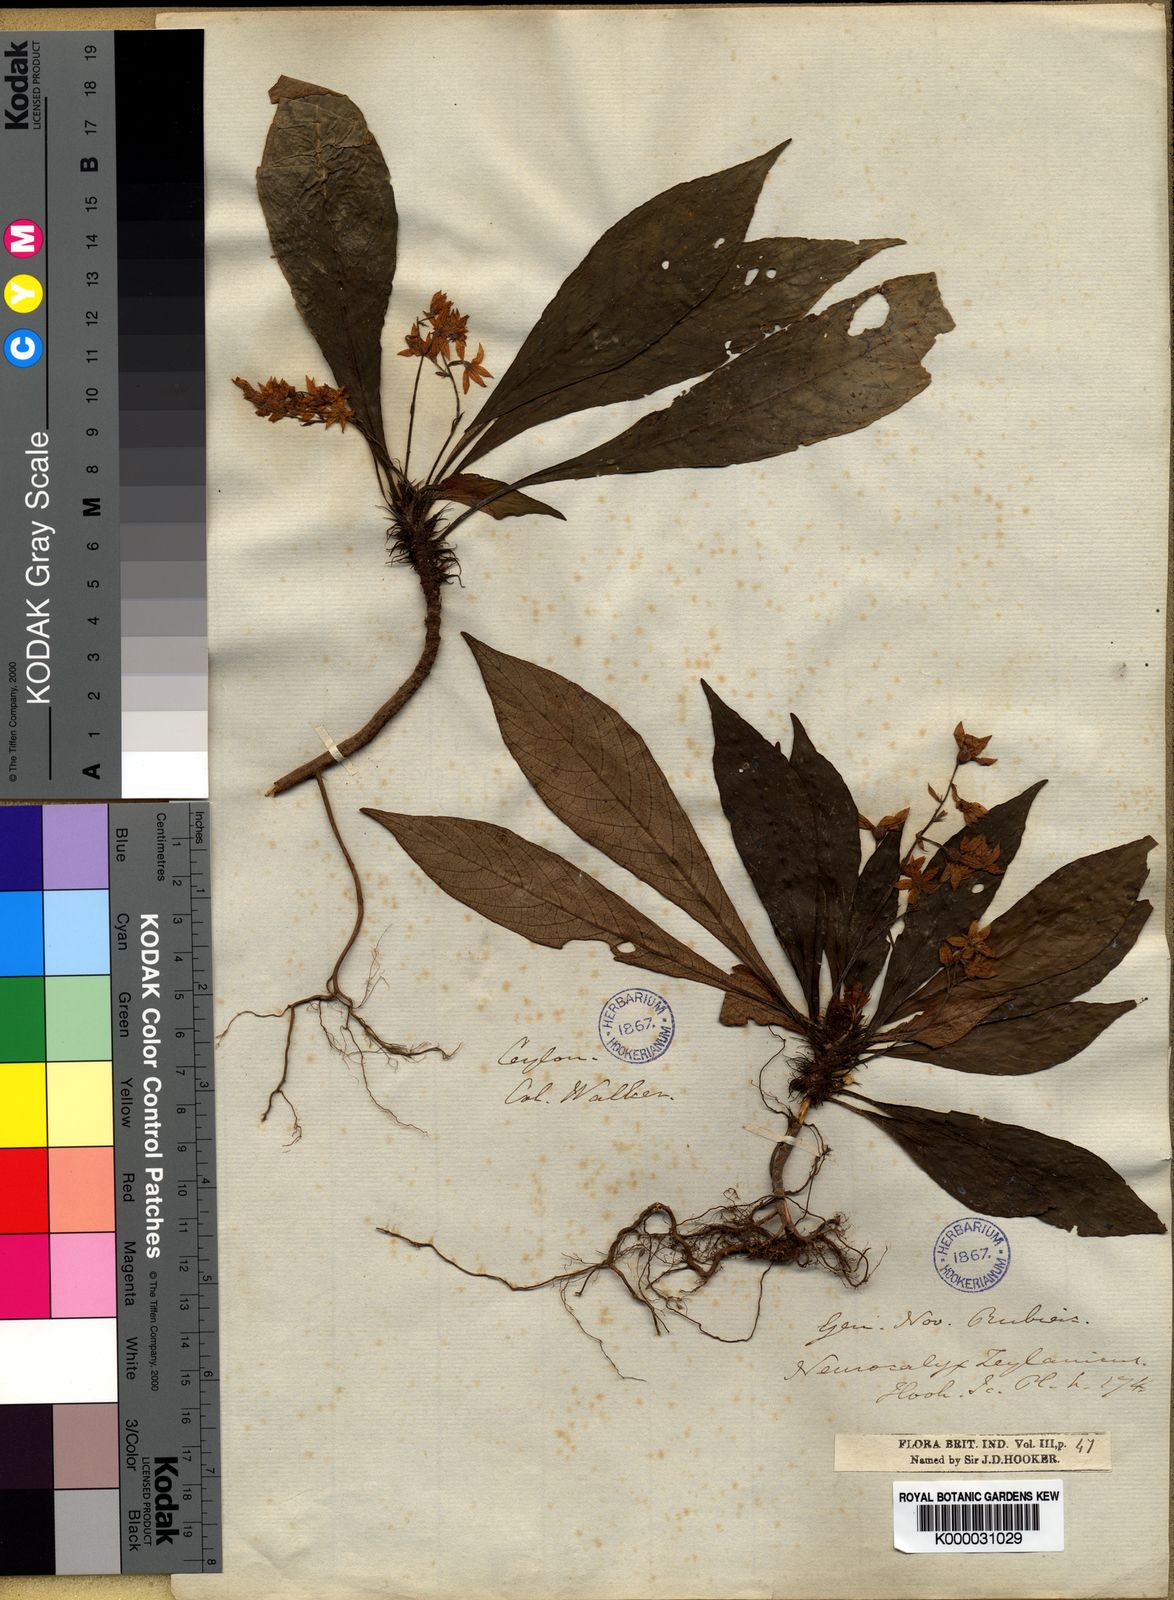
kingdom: Plantae
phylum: Tracheophyta
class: Magnoliopsida
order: Gentianales
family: Rubiaceae
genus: Neurocalyx
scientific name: Neurocalyx zeylanicus
